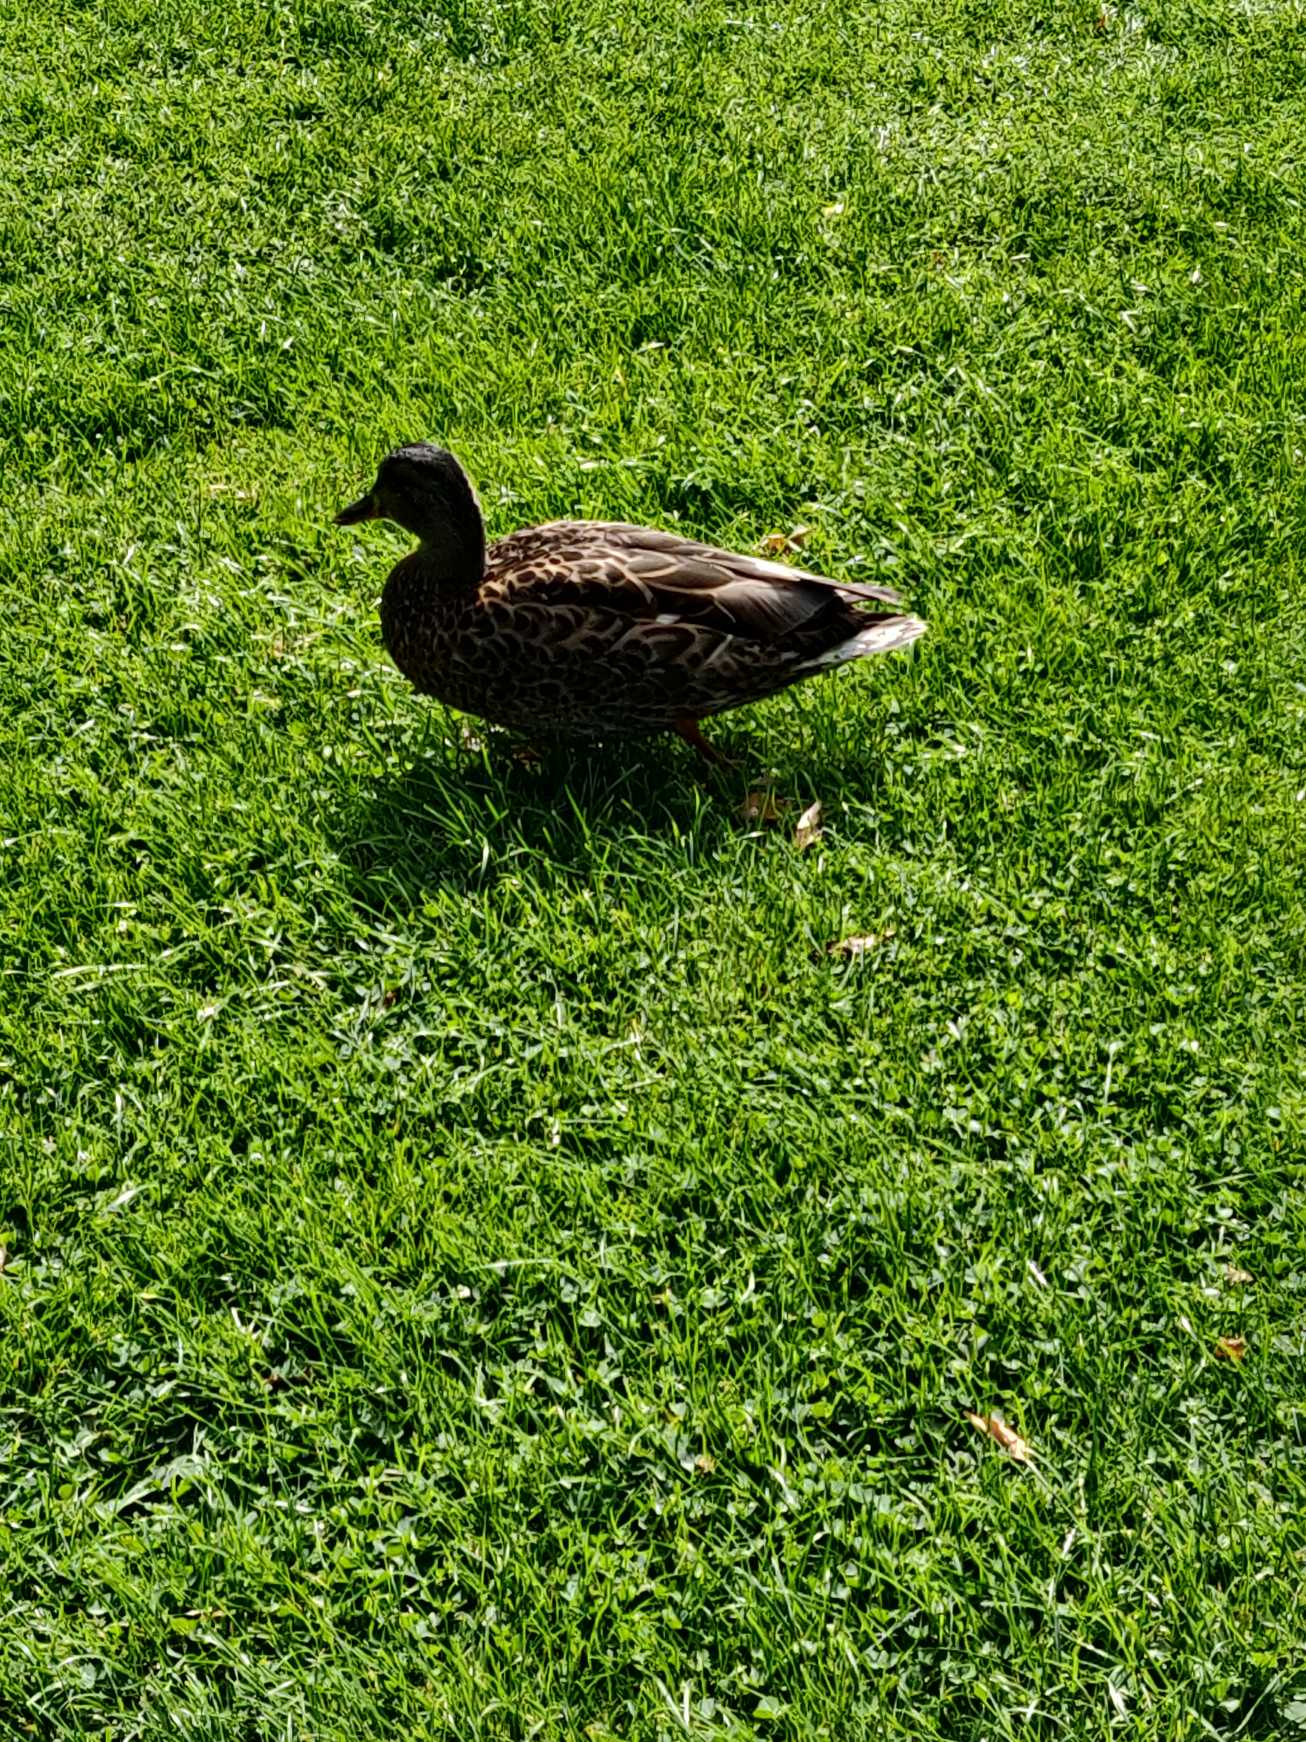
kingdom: Animalia
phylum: Chordata
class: Aves
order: Anseriformes
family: Anatidae
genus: Anas
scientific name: Anas platyrhynchos
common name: Gråand
